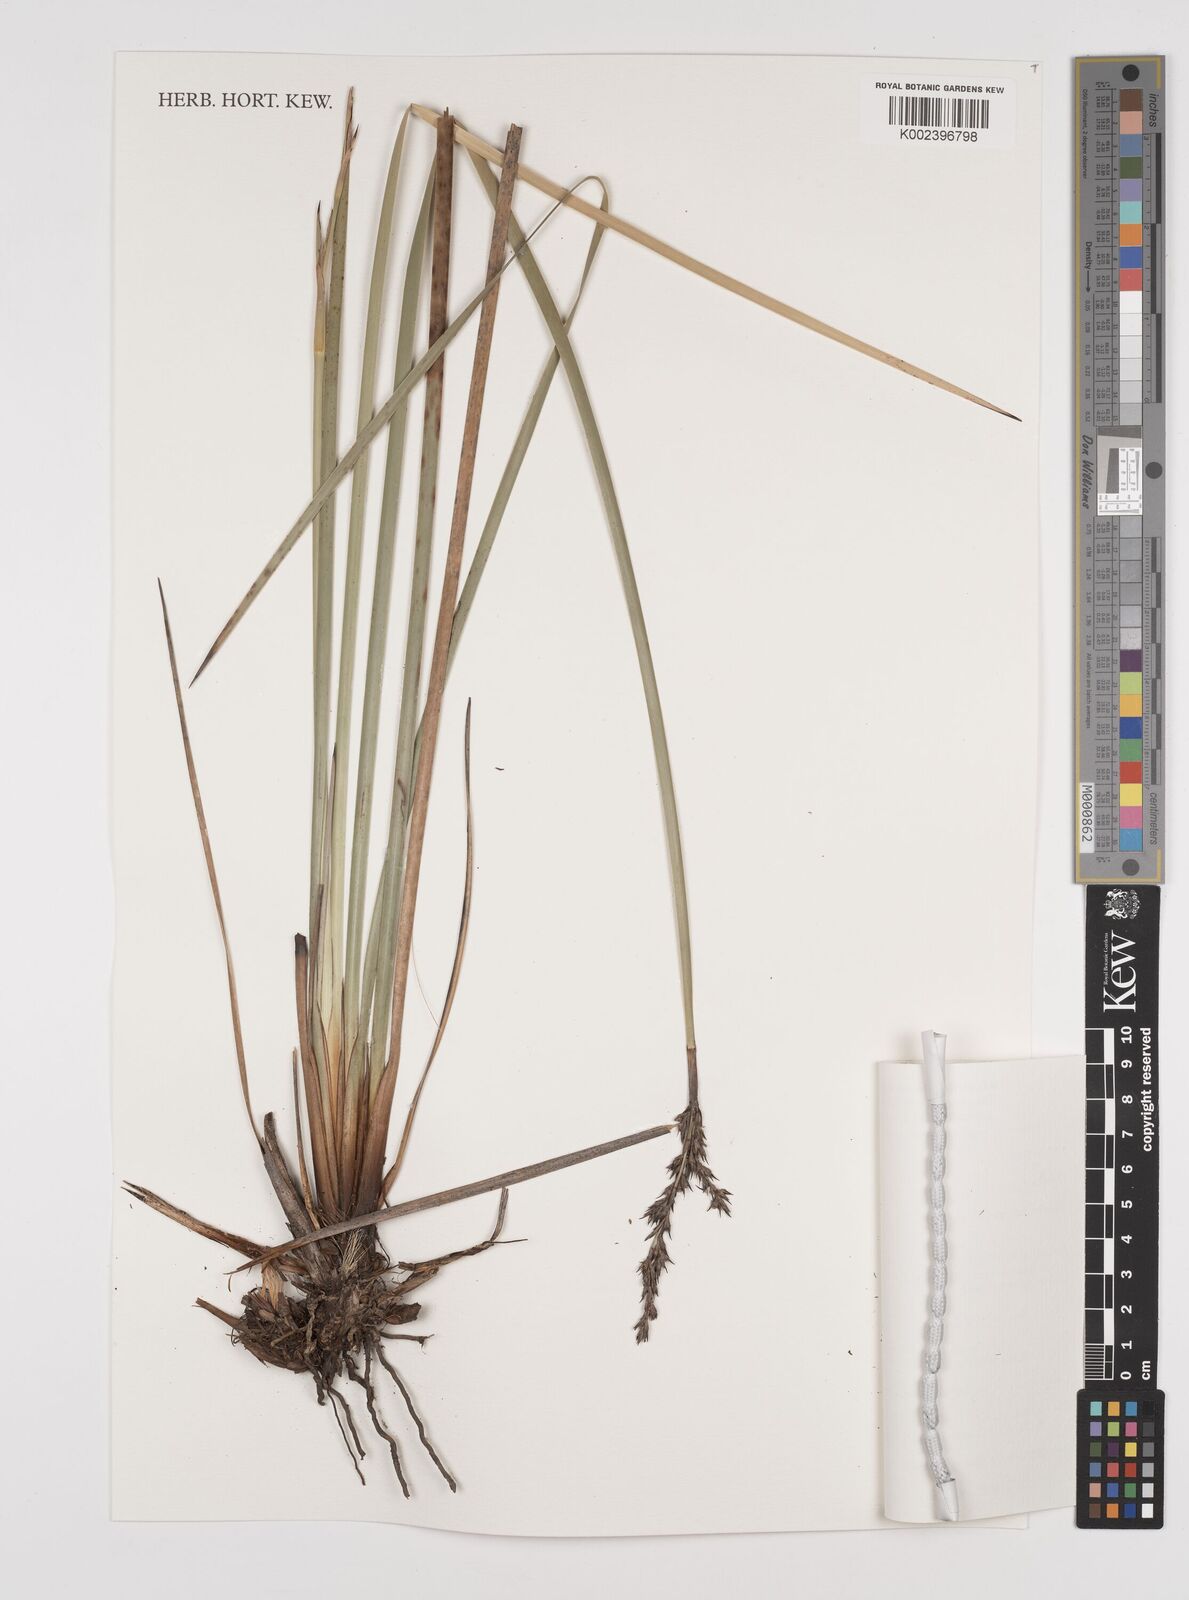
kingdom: Plantae
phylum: Tracheophyta
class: Liliopsida
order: Poales
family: Cyperaceae
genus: Lepidosperma
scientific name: Lepidosperma laterale
